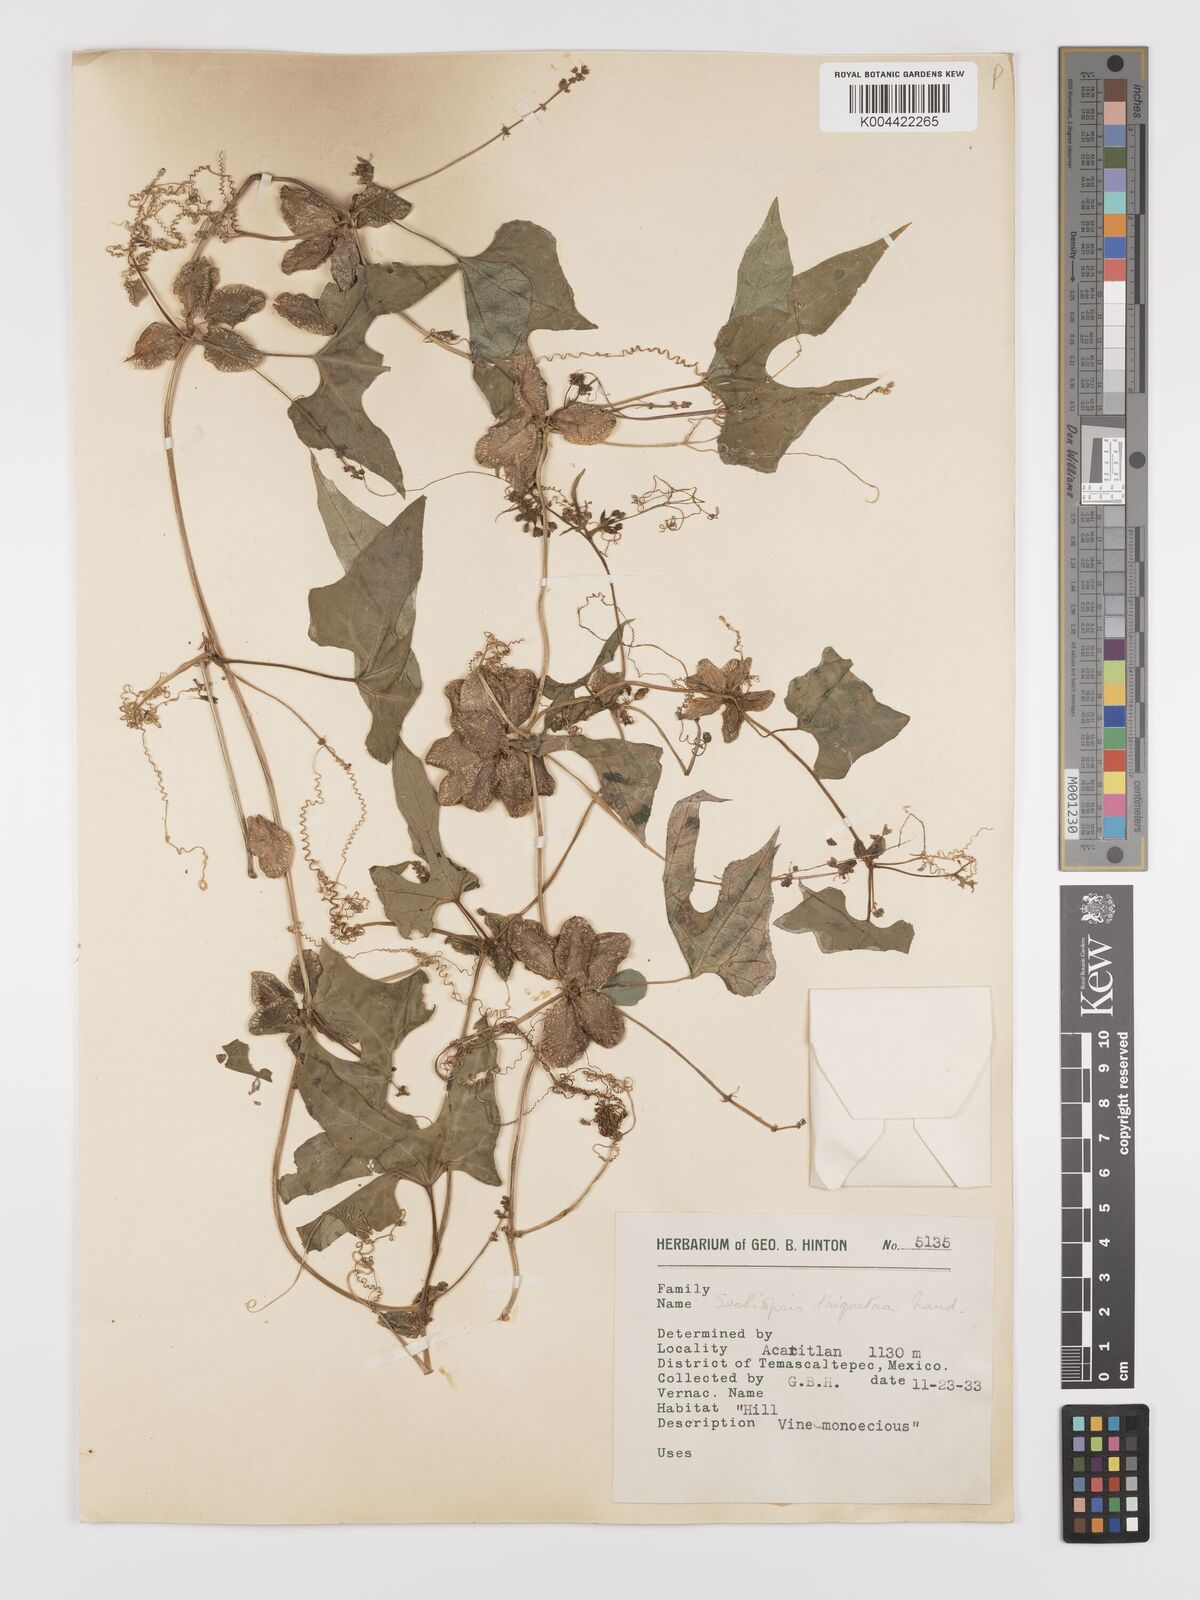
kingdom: Plantae
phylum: Tracheophyta
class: Magnoliopsida
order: Cucurbitales
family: Cucurbitaceae
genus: Sechiopsis
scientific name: Sechiopsis triqueter
